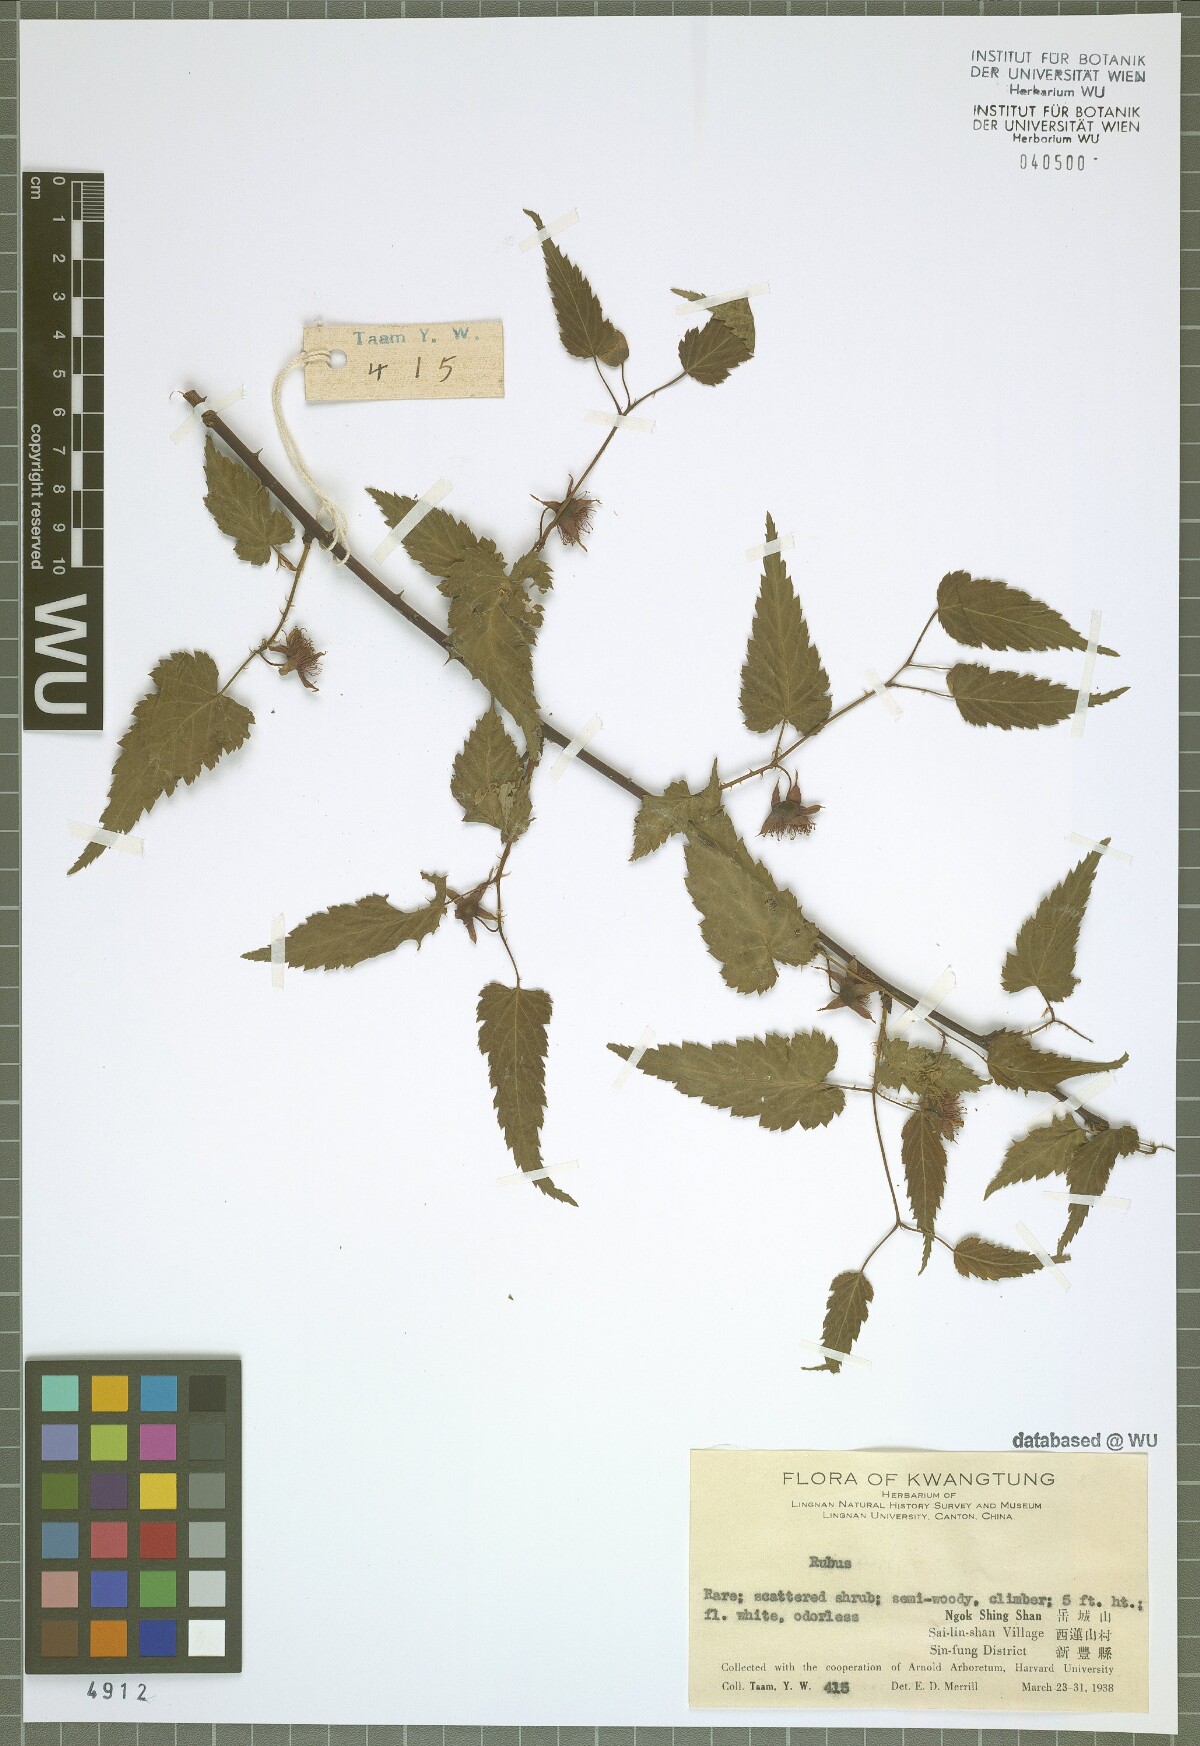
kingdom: Plantae
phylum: Tracheophyta
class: Magnoliopsida
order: Rosales
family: Rosaceae
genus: Rubus
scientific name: Rubus
